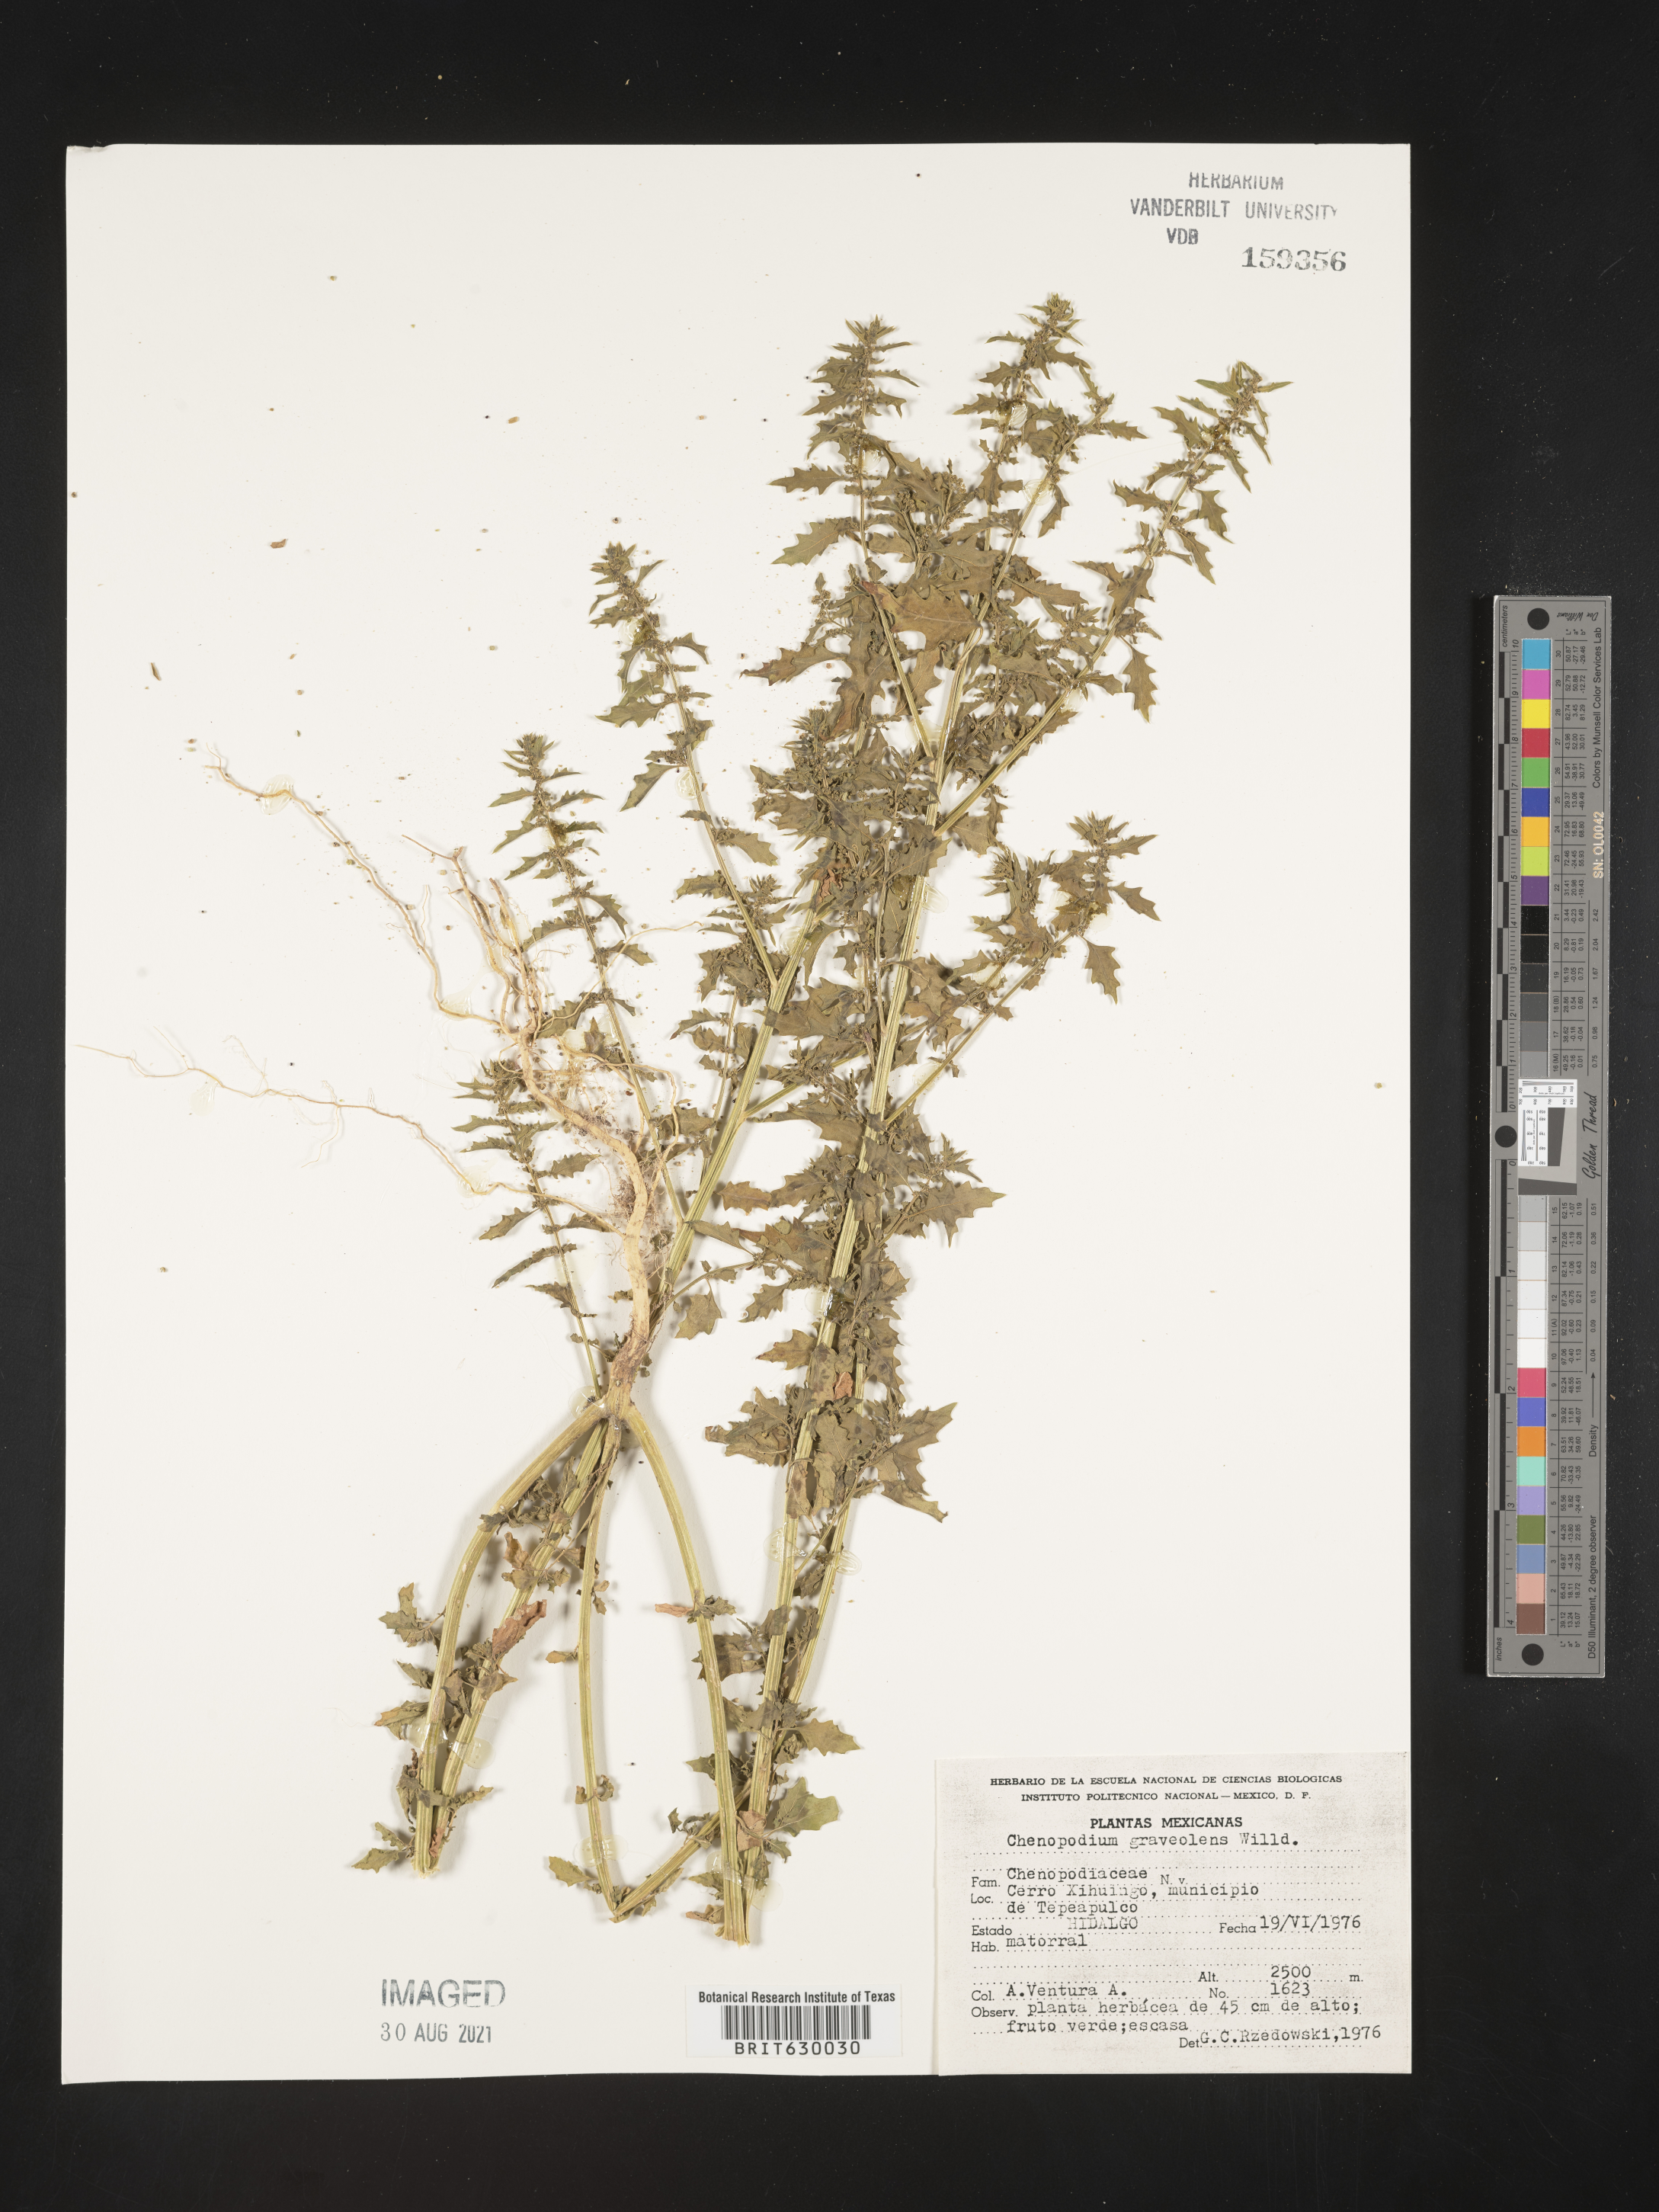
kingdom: Plantae
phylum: Tracheophyta
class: Magnoliopsida
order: Caryophyllales
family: Amaranthaceae
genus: Chenopodium
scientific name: Chenopodium
